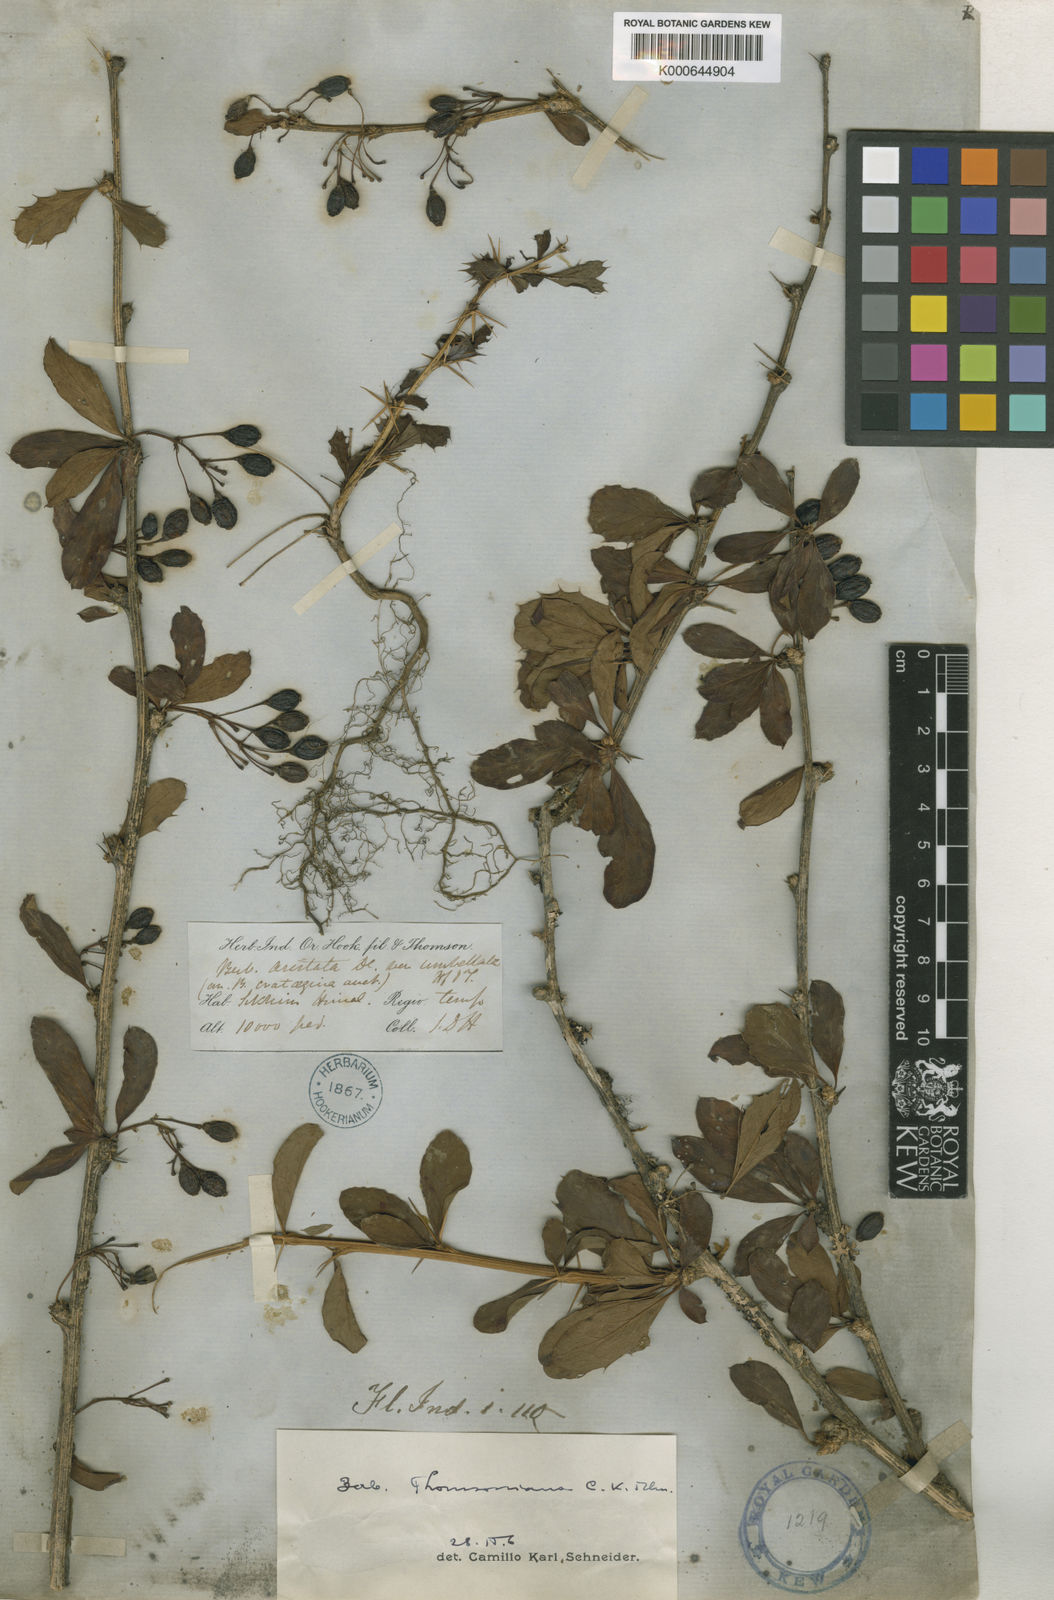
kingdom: Plantae
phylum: Tracheophyta
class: Magnoliopsida
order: Ranunculales
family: Berberidaceae
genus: Berberis
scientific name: Berberis thomsoniana
